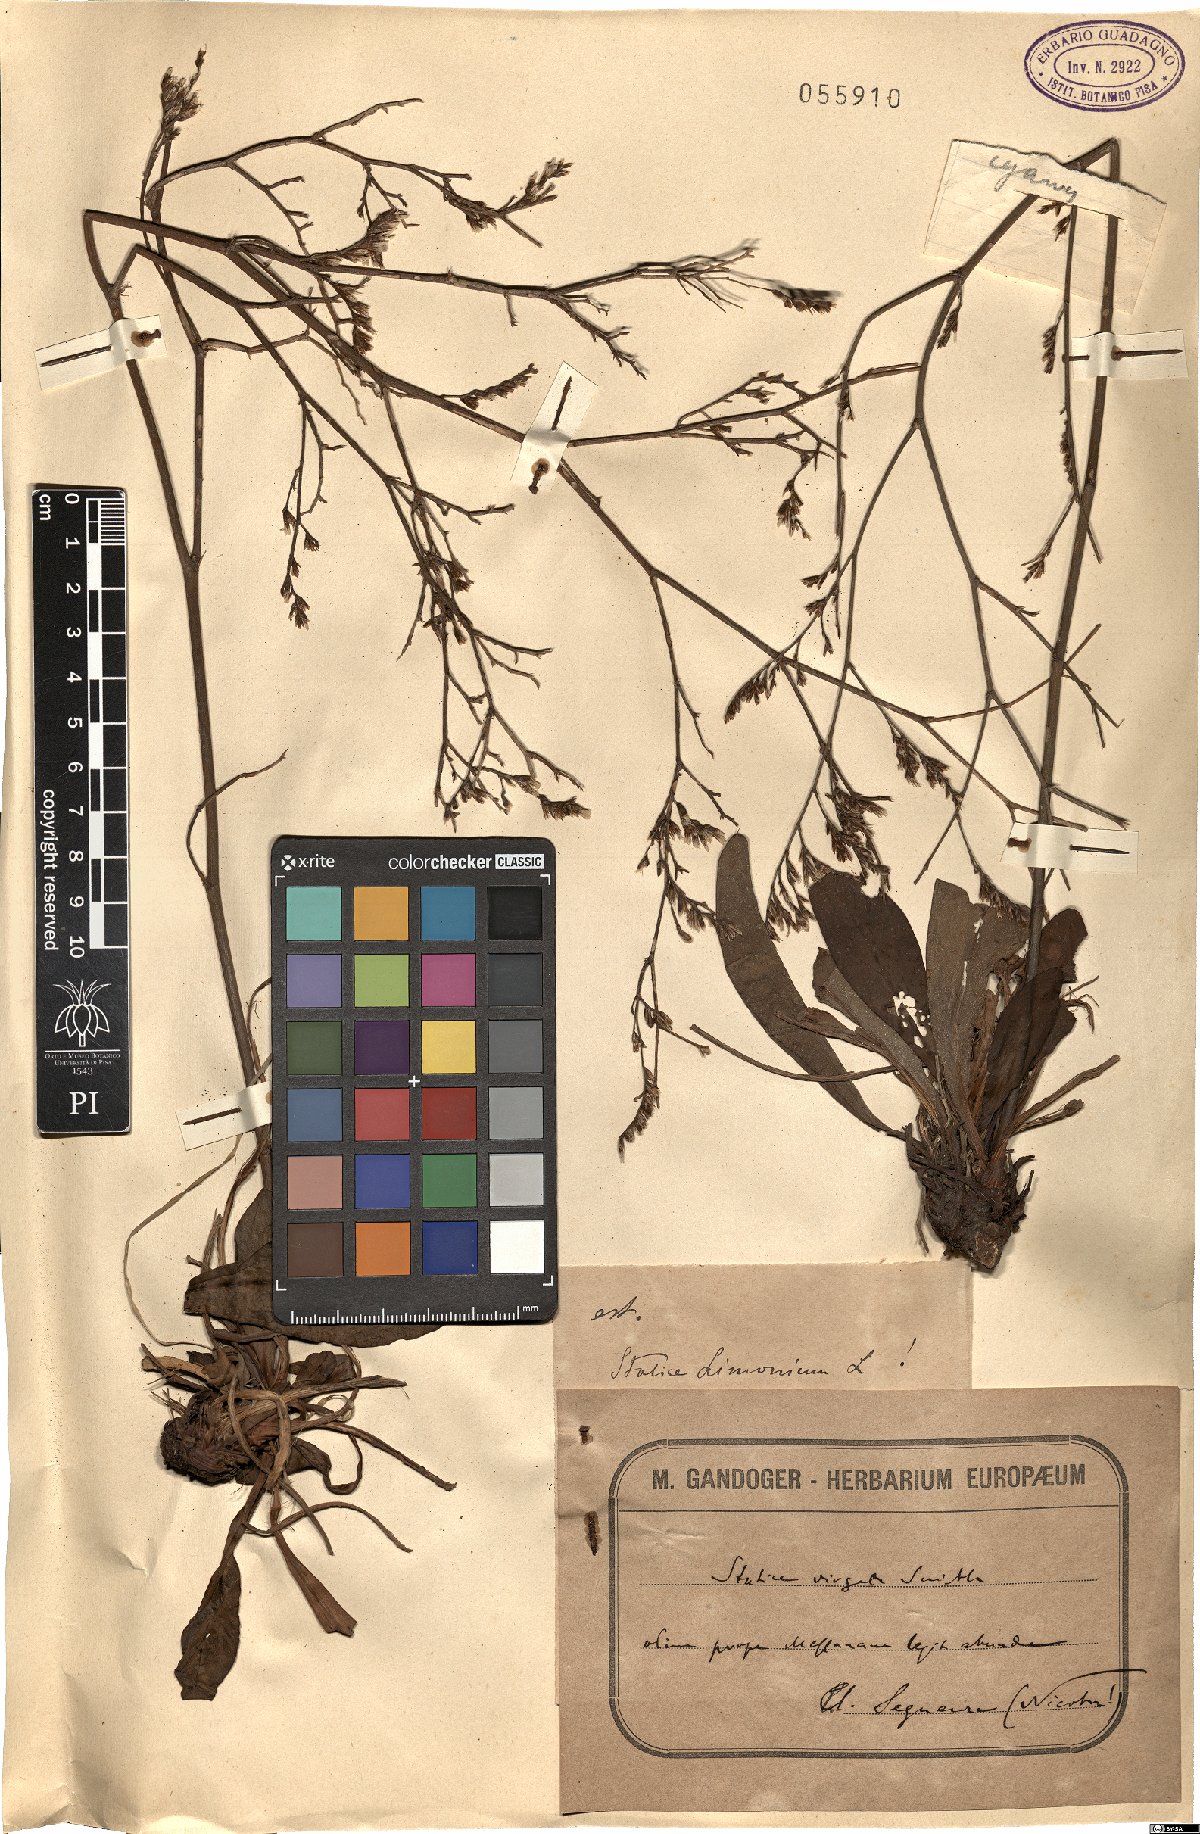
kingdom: Plantae
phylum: Tracheophyta
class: Magnoliopsida
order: Caryophyllales
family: Plumbaginaceae
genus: Limonium
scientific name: Limonium vulgare
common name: Common sea-lavender
